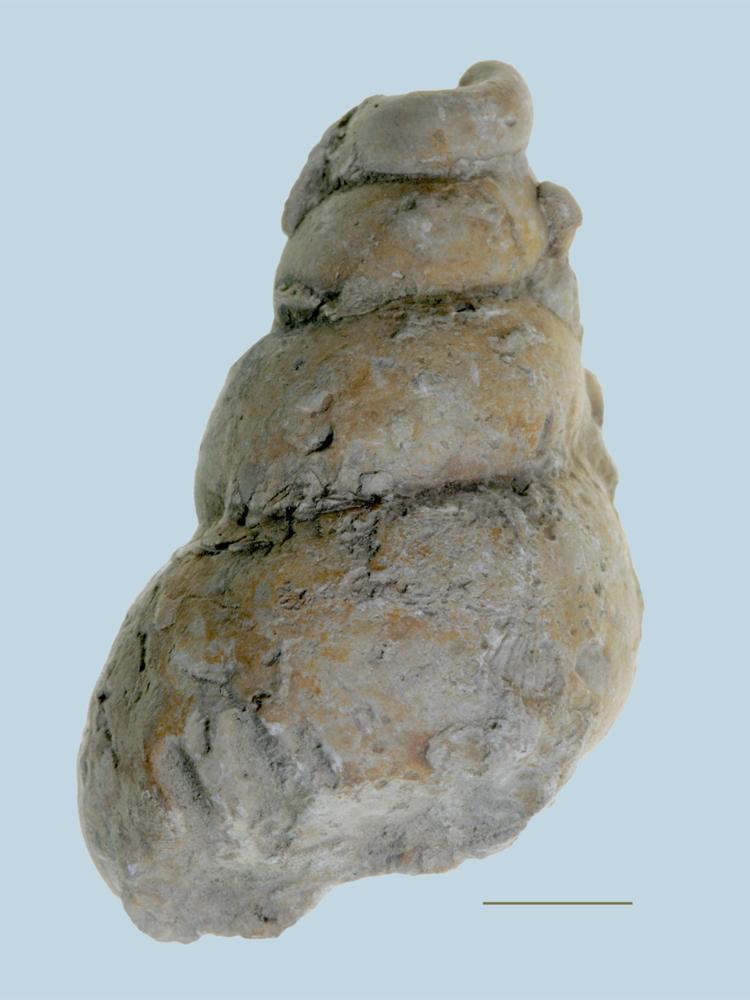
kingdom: Animalia
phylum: Mollusca
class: Gastropoda
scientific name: Gastropoda
